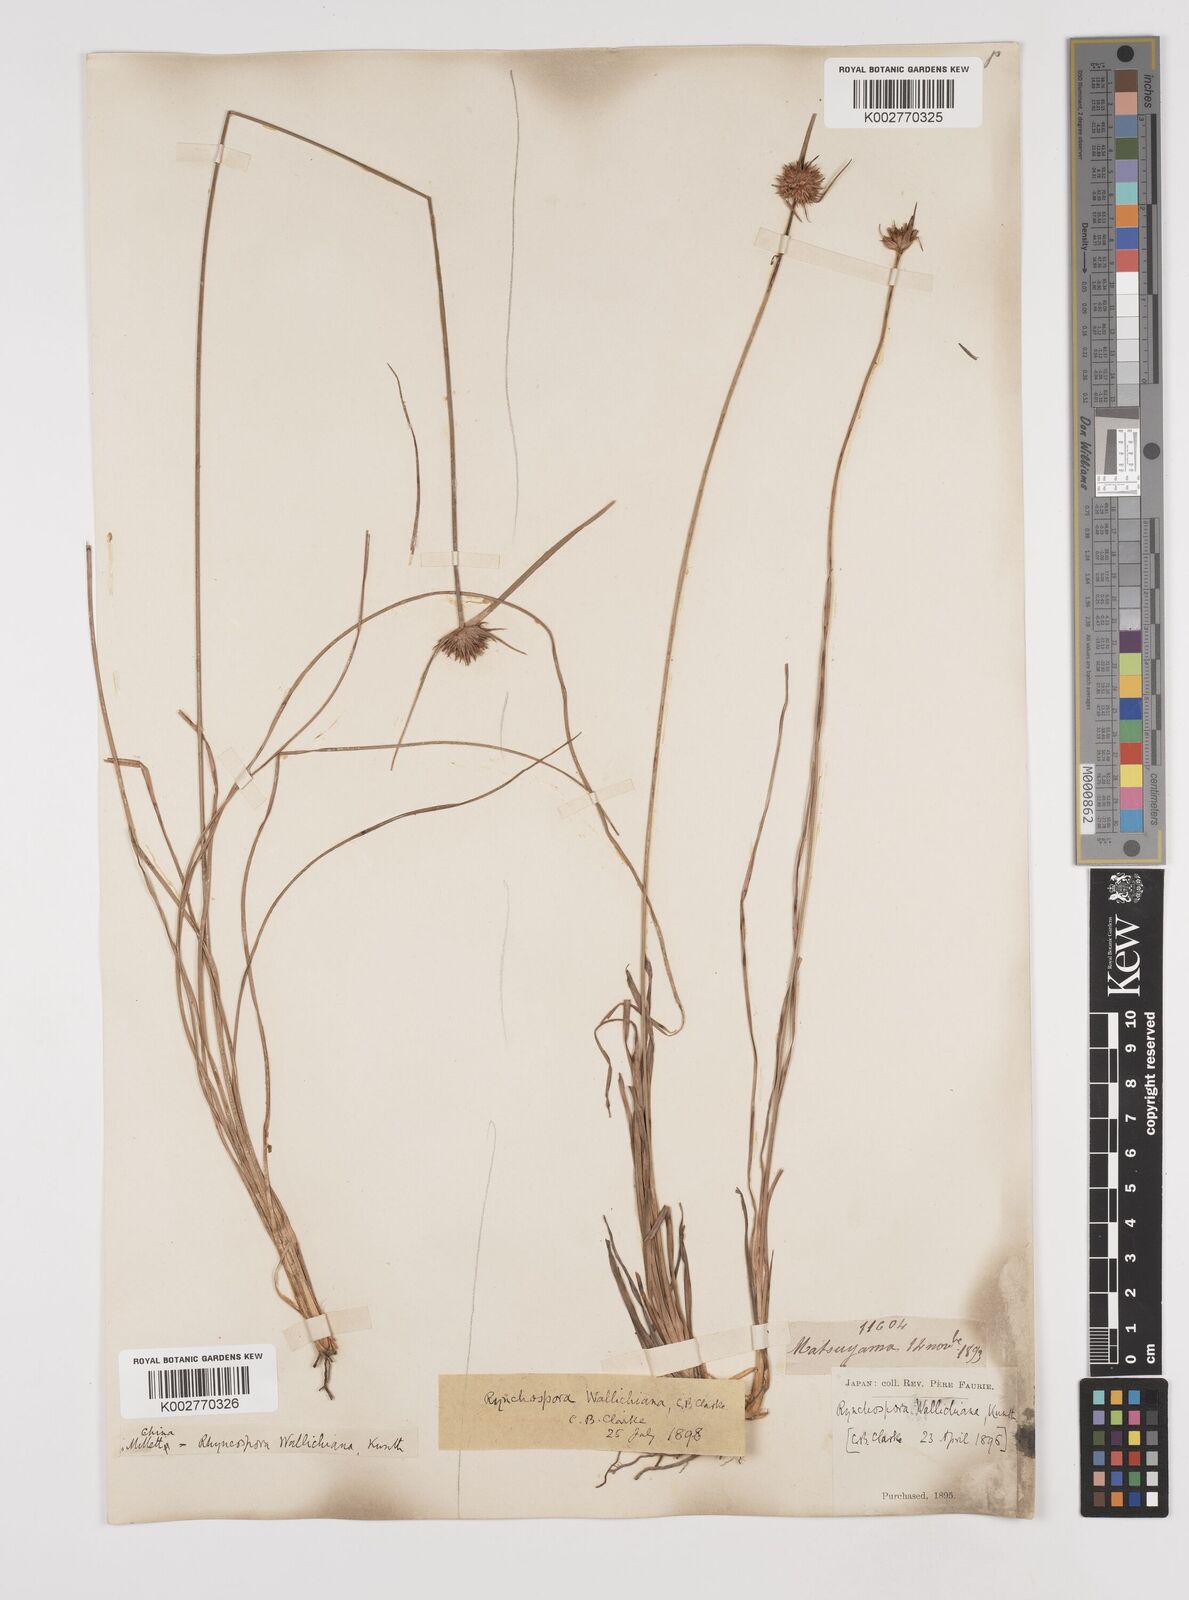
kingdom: Plantae
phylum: Tracheophyta
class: Liliopsida
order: Poales
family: Cyperaceae
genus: Rhynchospora
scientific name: Rhynchospora rubra
